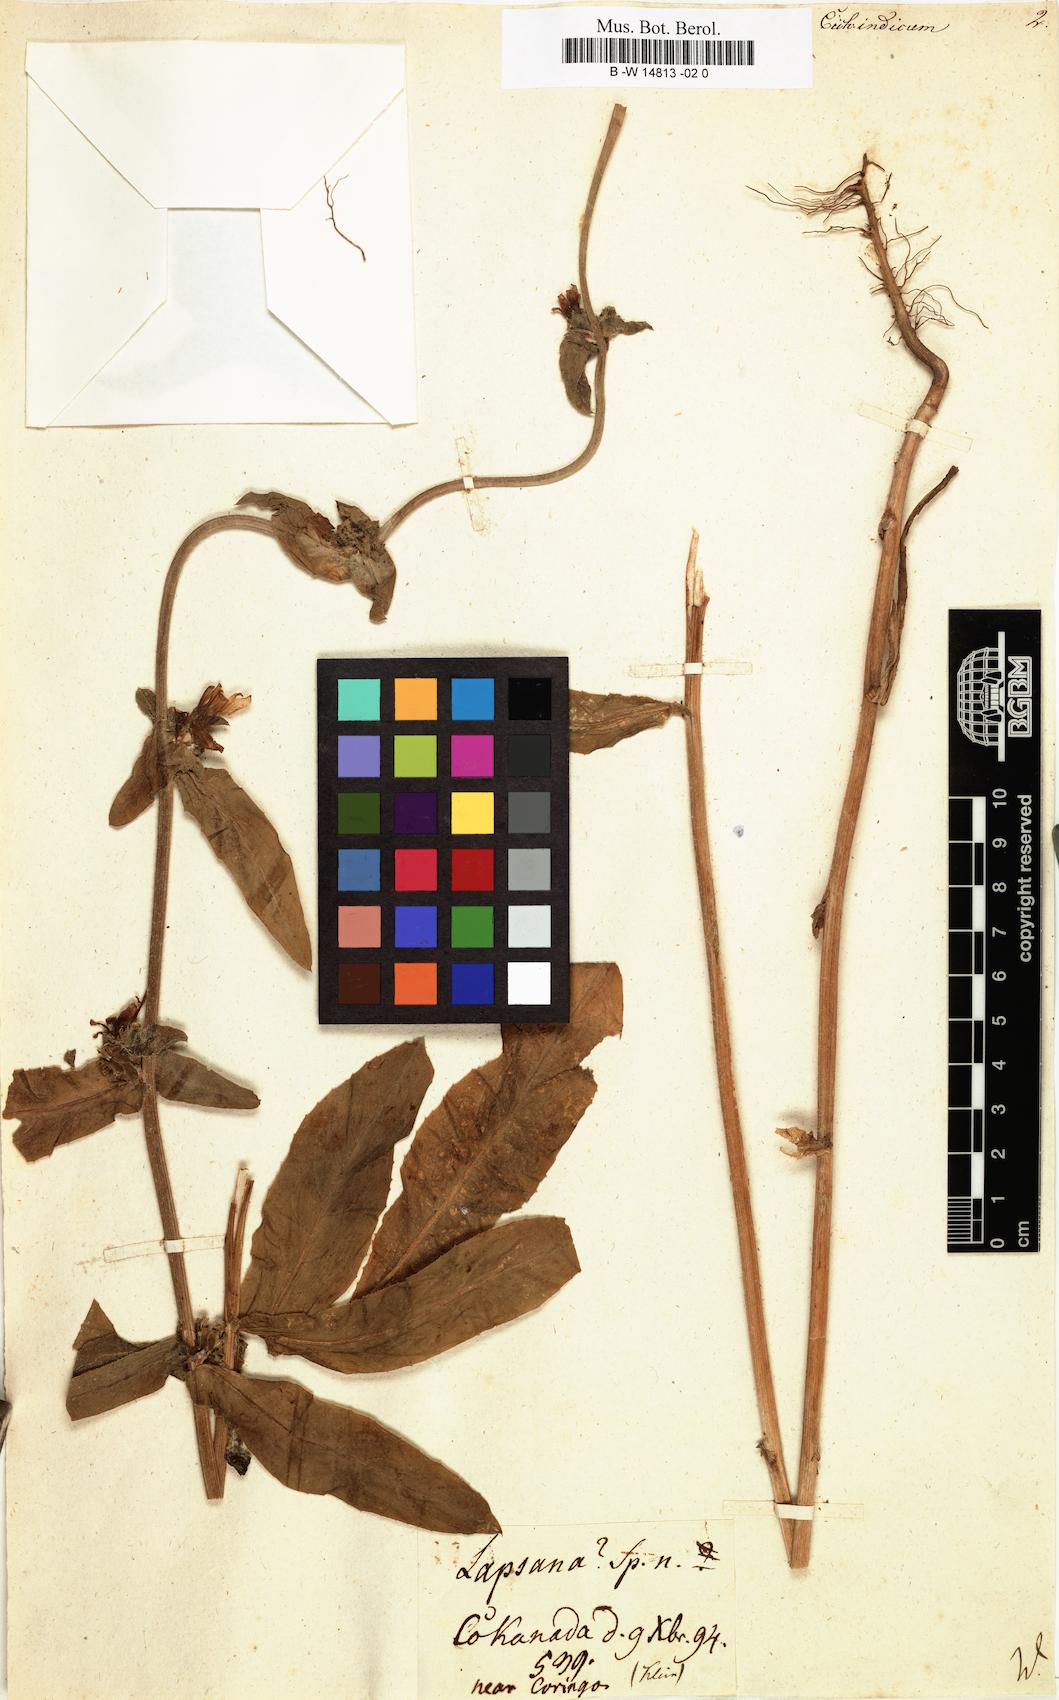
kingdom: Plantae
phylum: Tracheophyta
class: Magnoliopsida
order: Asterales
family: Asteraceae
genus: Cichorium
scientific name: Cichorium intybus
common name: Chicory
